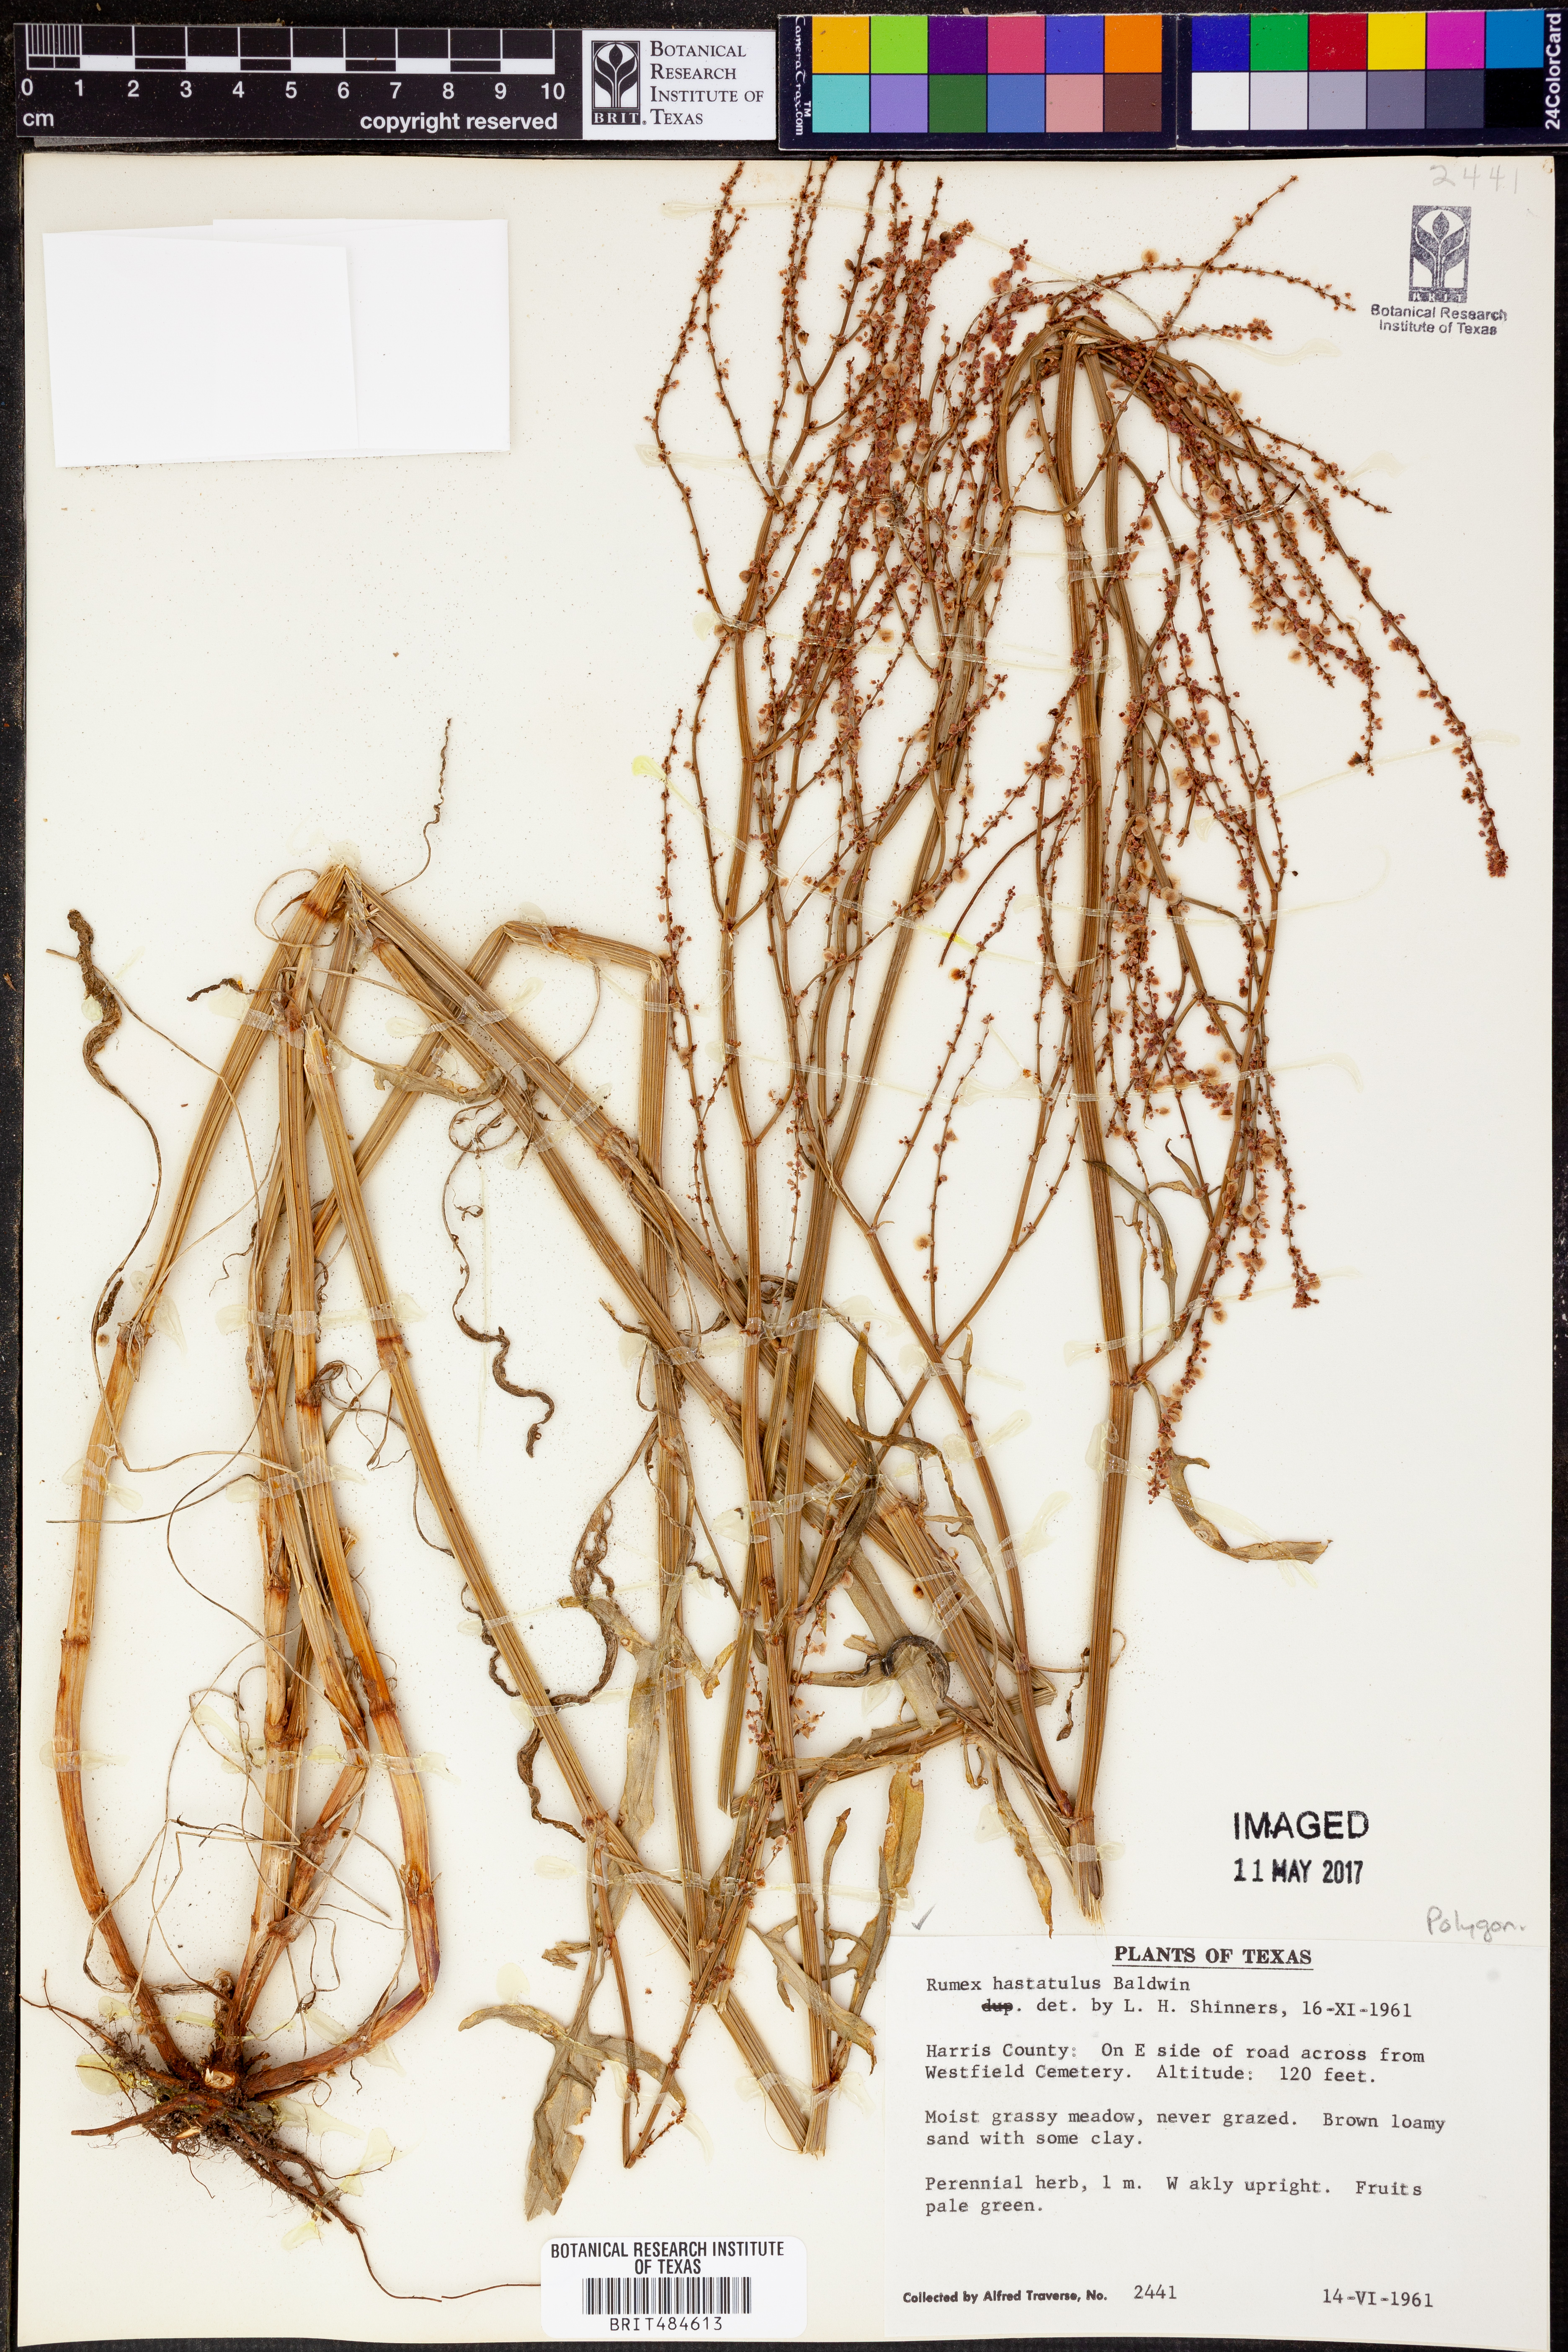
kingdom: Plantae
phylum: Tracheophyta
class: Magnoliopsida
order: Caryophyllales
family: Polygonaceae
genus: Rumex
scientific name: Rumex hastatulus
